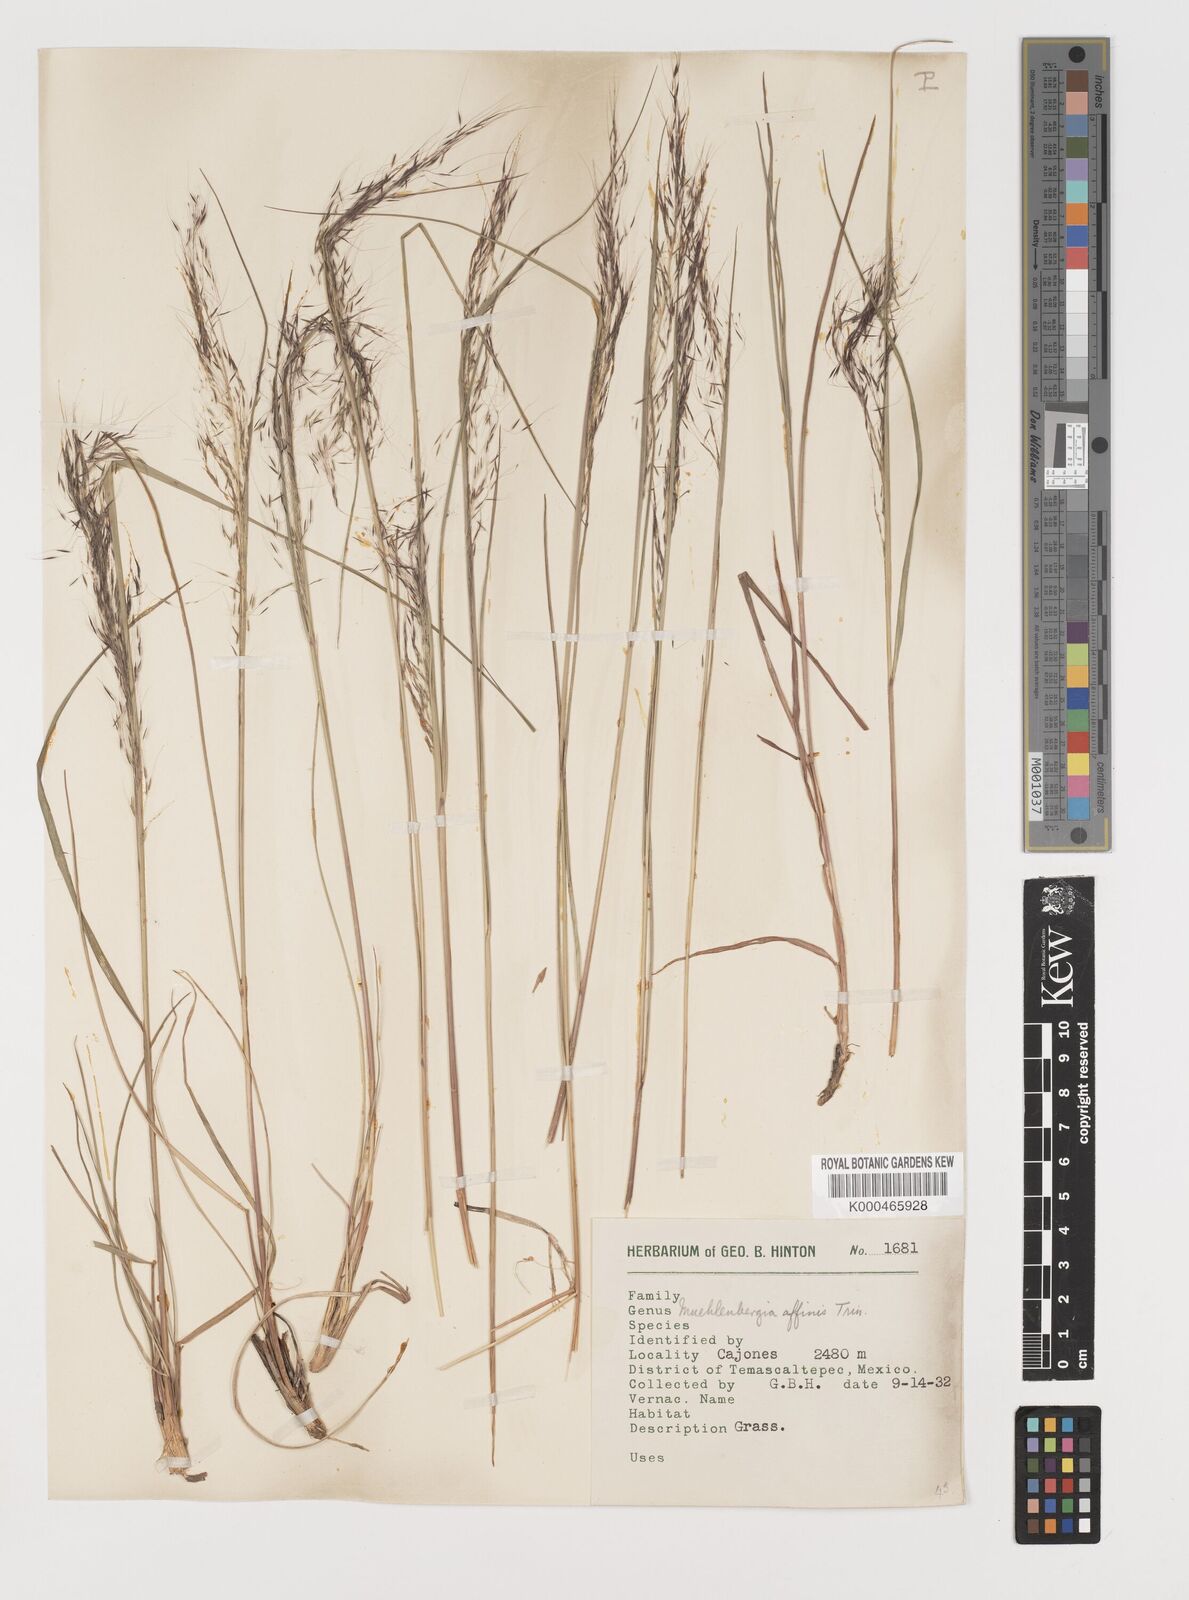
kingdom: Plantae
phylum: Tracheophyta
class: Liliopsida
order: Poales
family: Poaceae
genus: Muhlenbergia
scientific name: Muhlenbergia rigida
